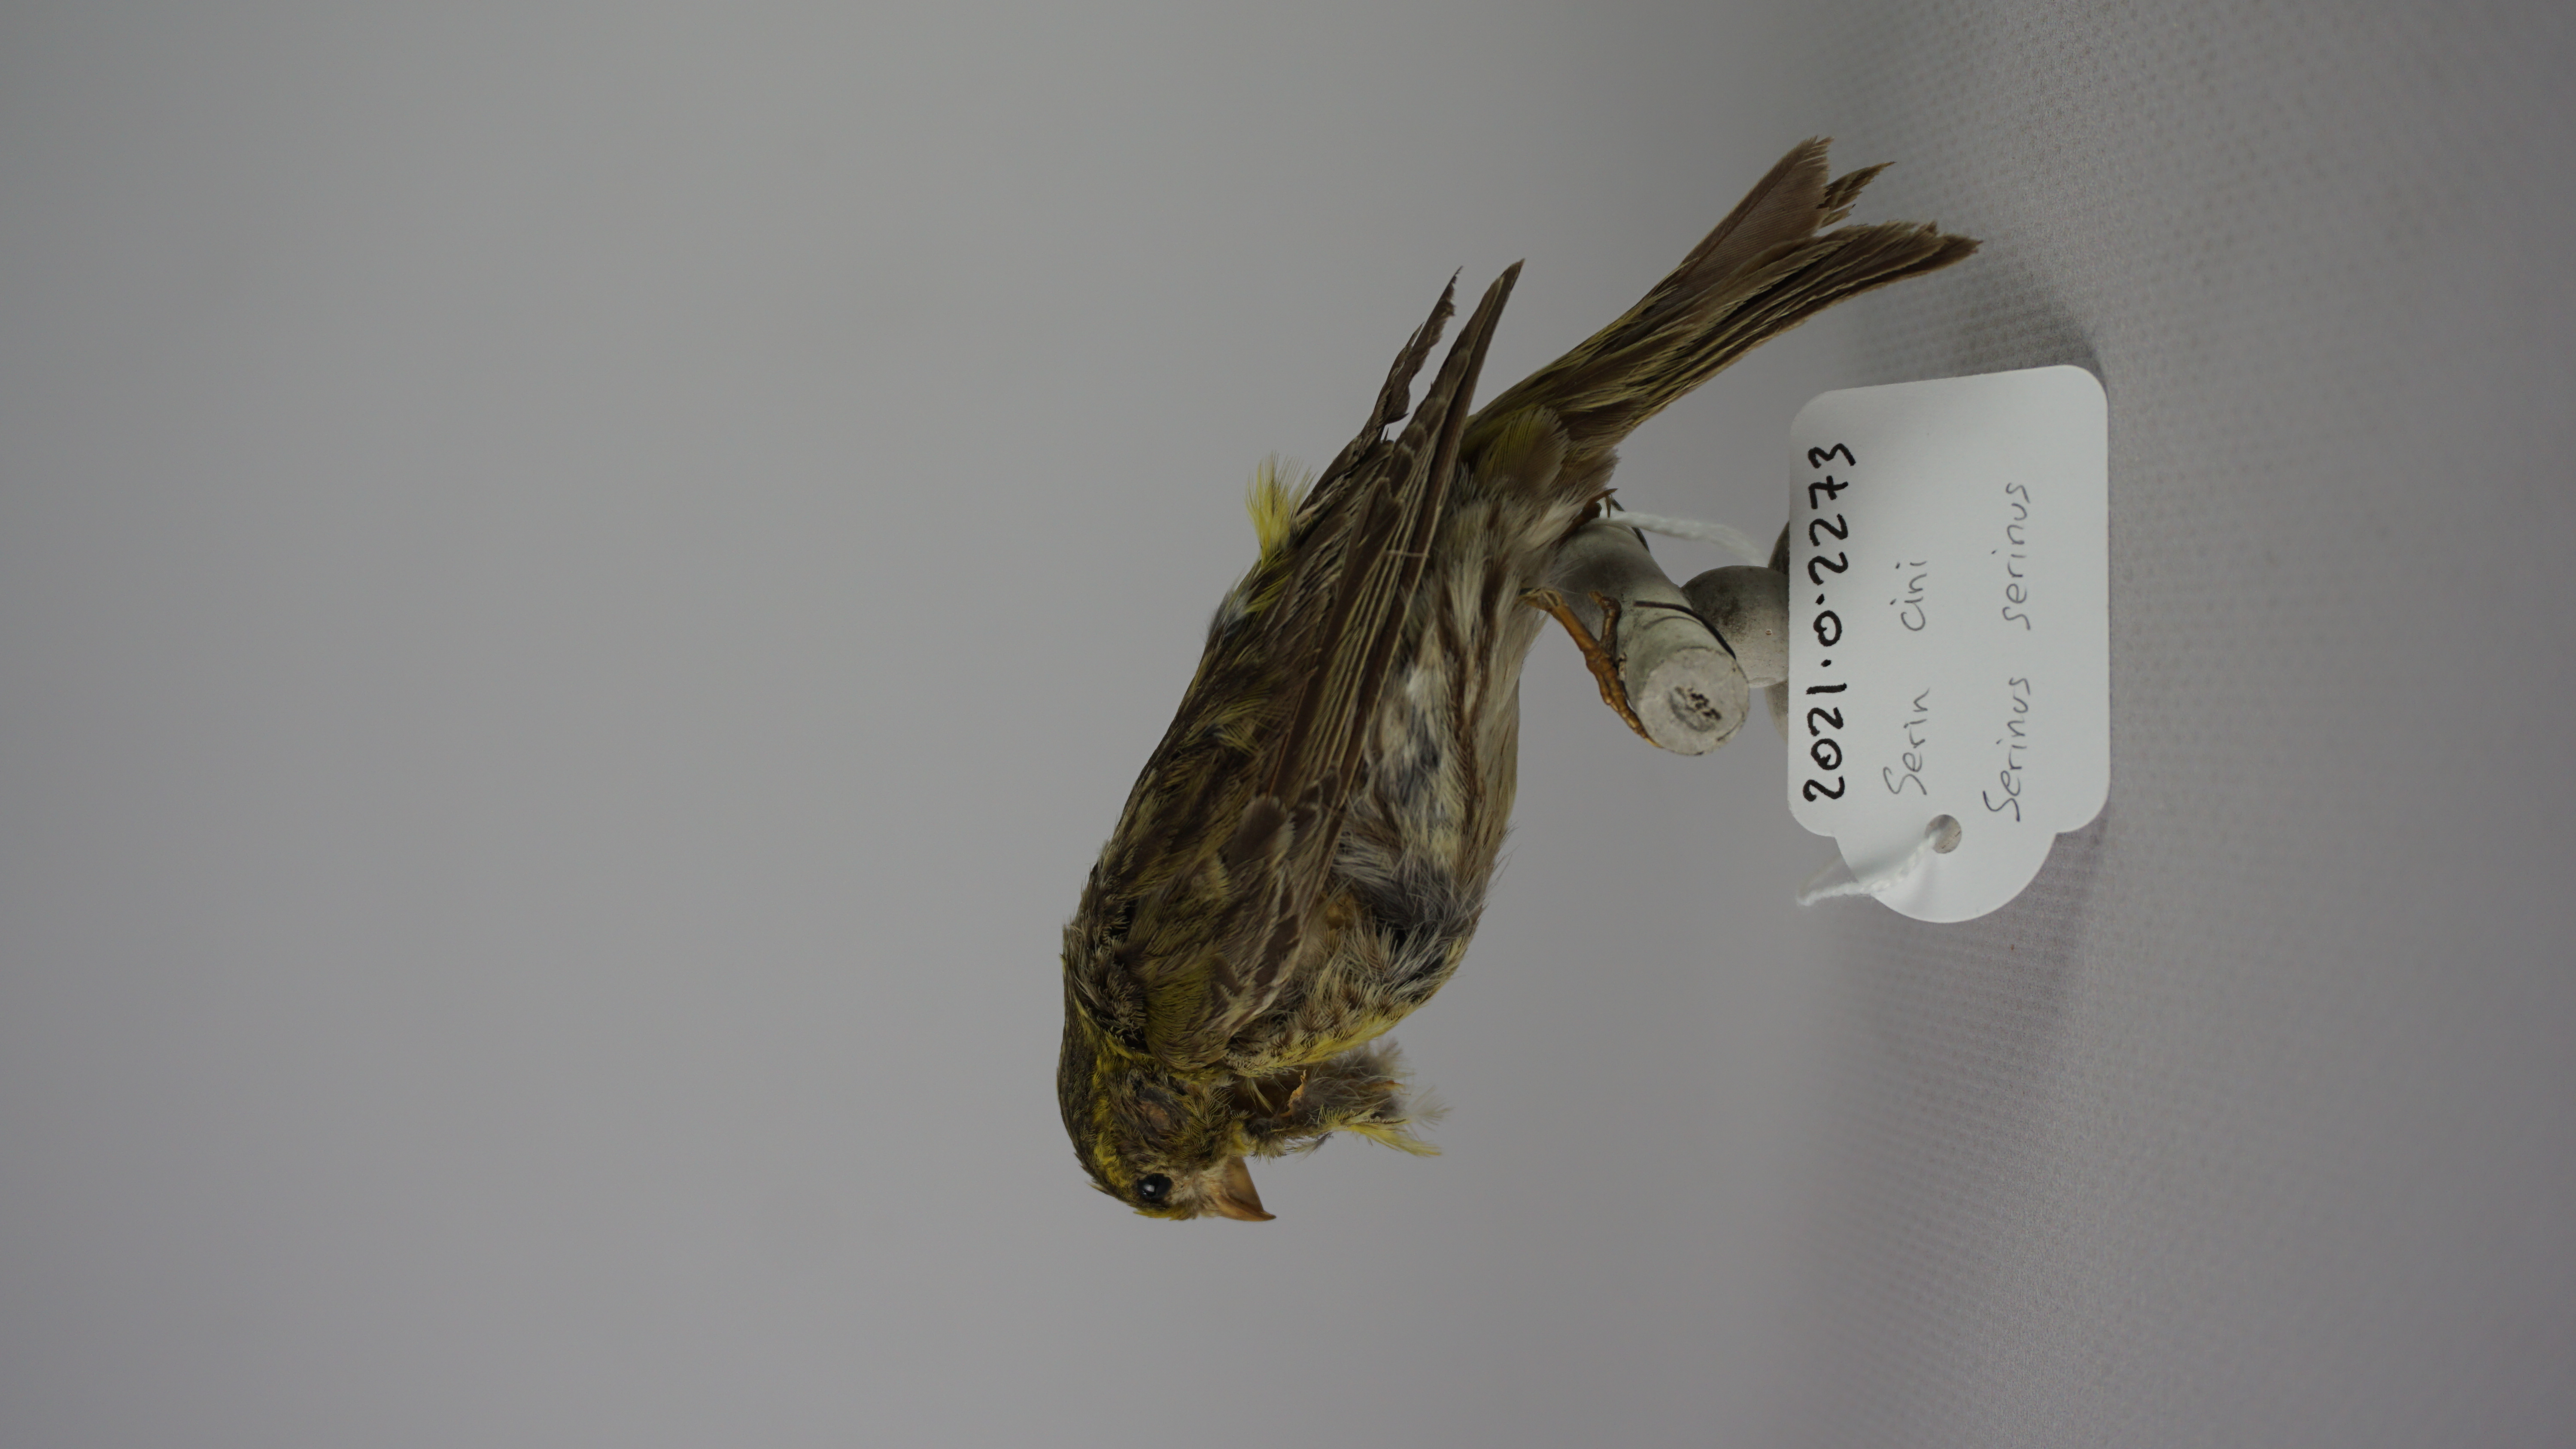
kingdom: Animalia
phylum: Chordata
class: Aves
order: Passeriformes
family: Fringillidae
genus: Serinus
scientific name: Serinus serinus
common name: European serin
